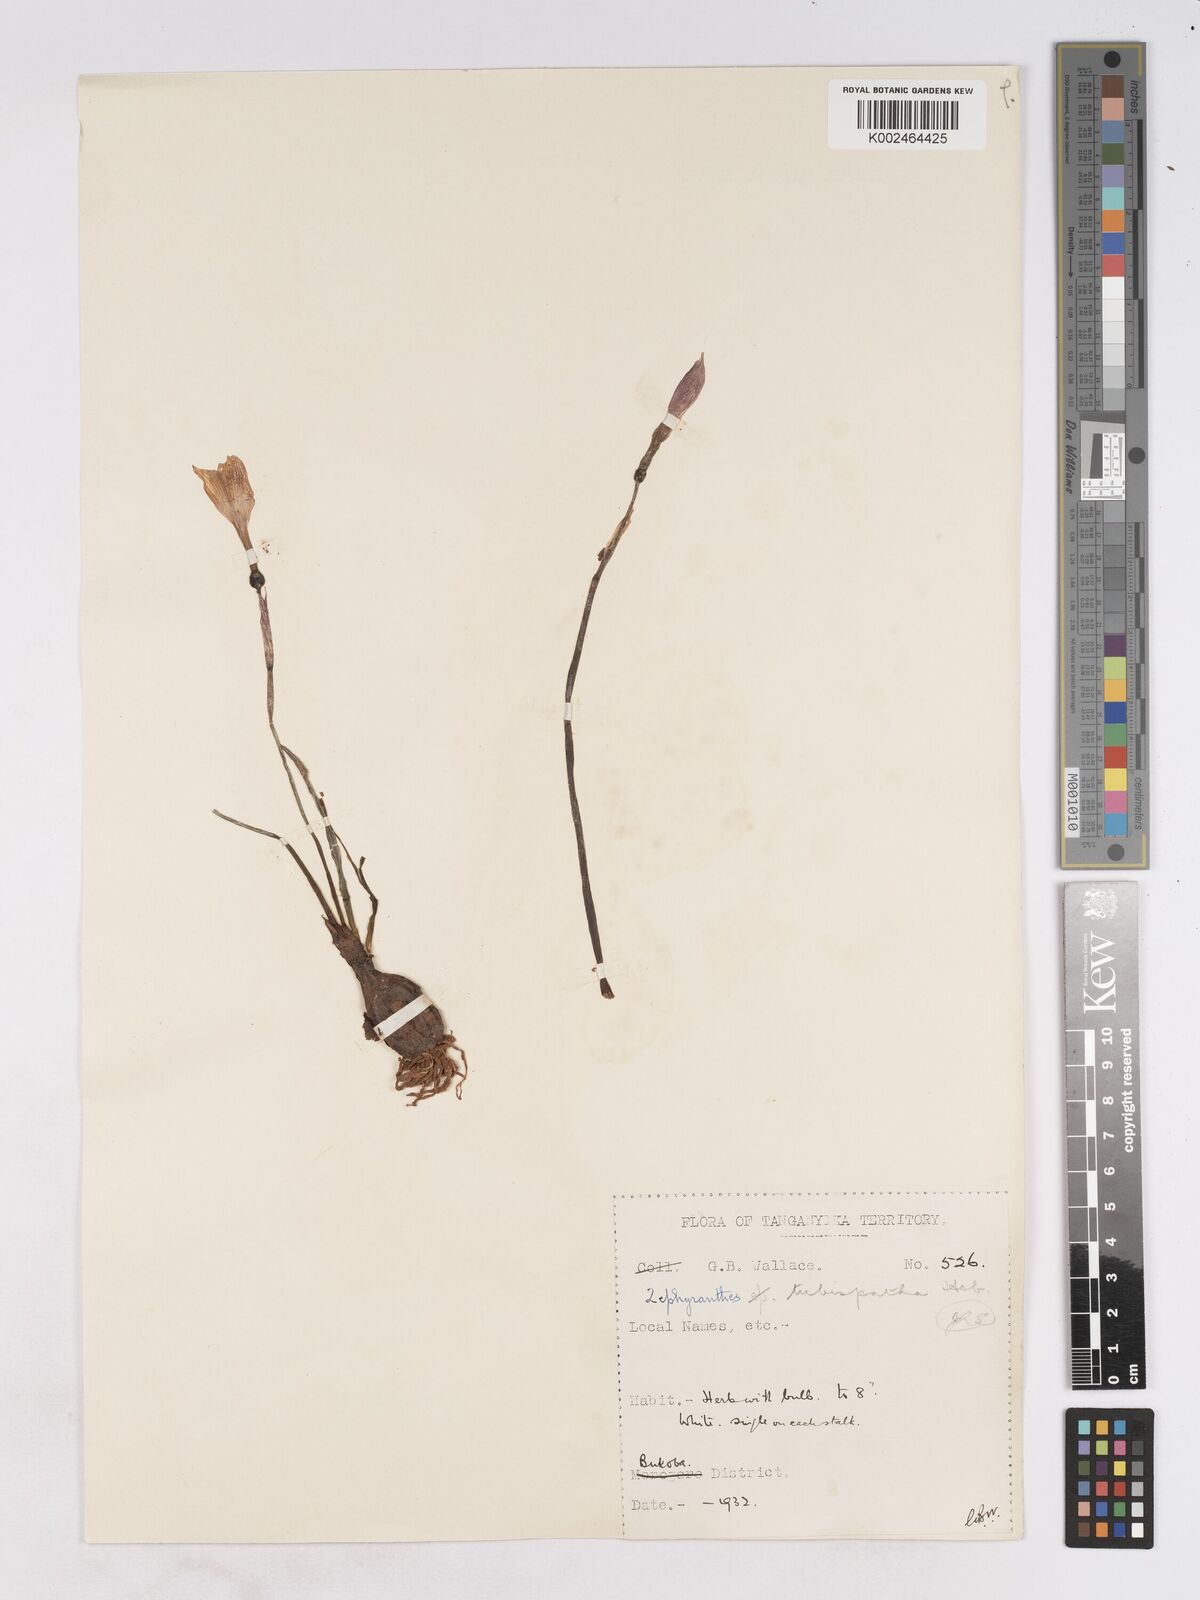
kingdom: Plantae
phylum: Tracheophyta
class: Liliopsida
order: Asparagales
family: Amaryllidaceae
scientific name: Amaryllidaceae
